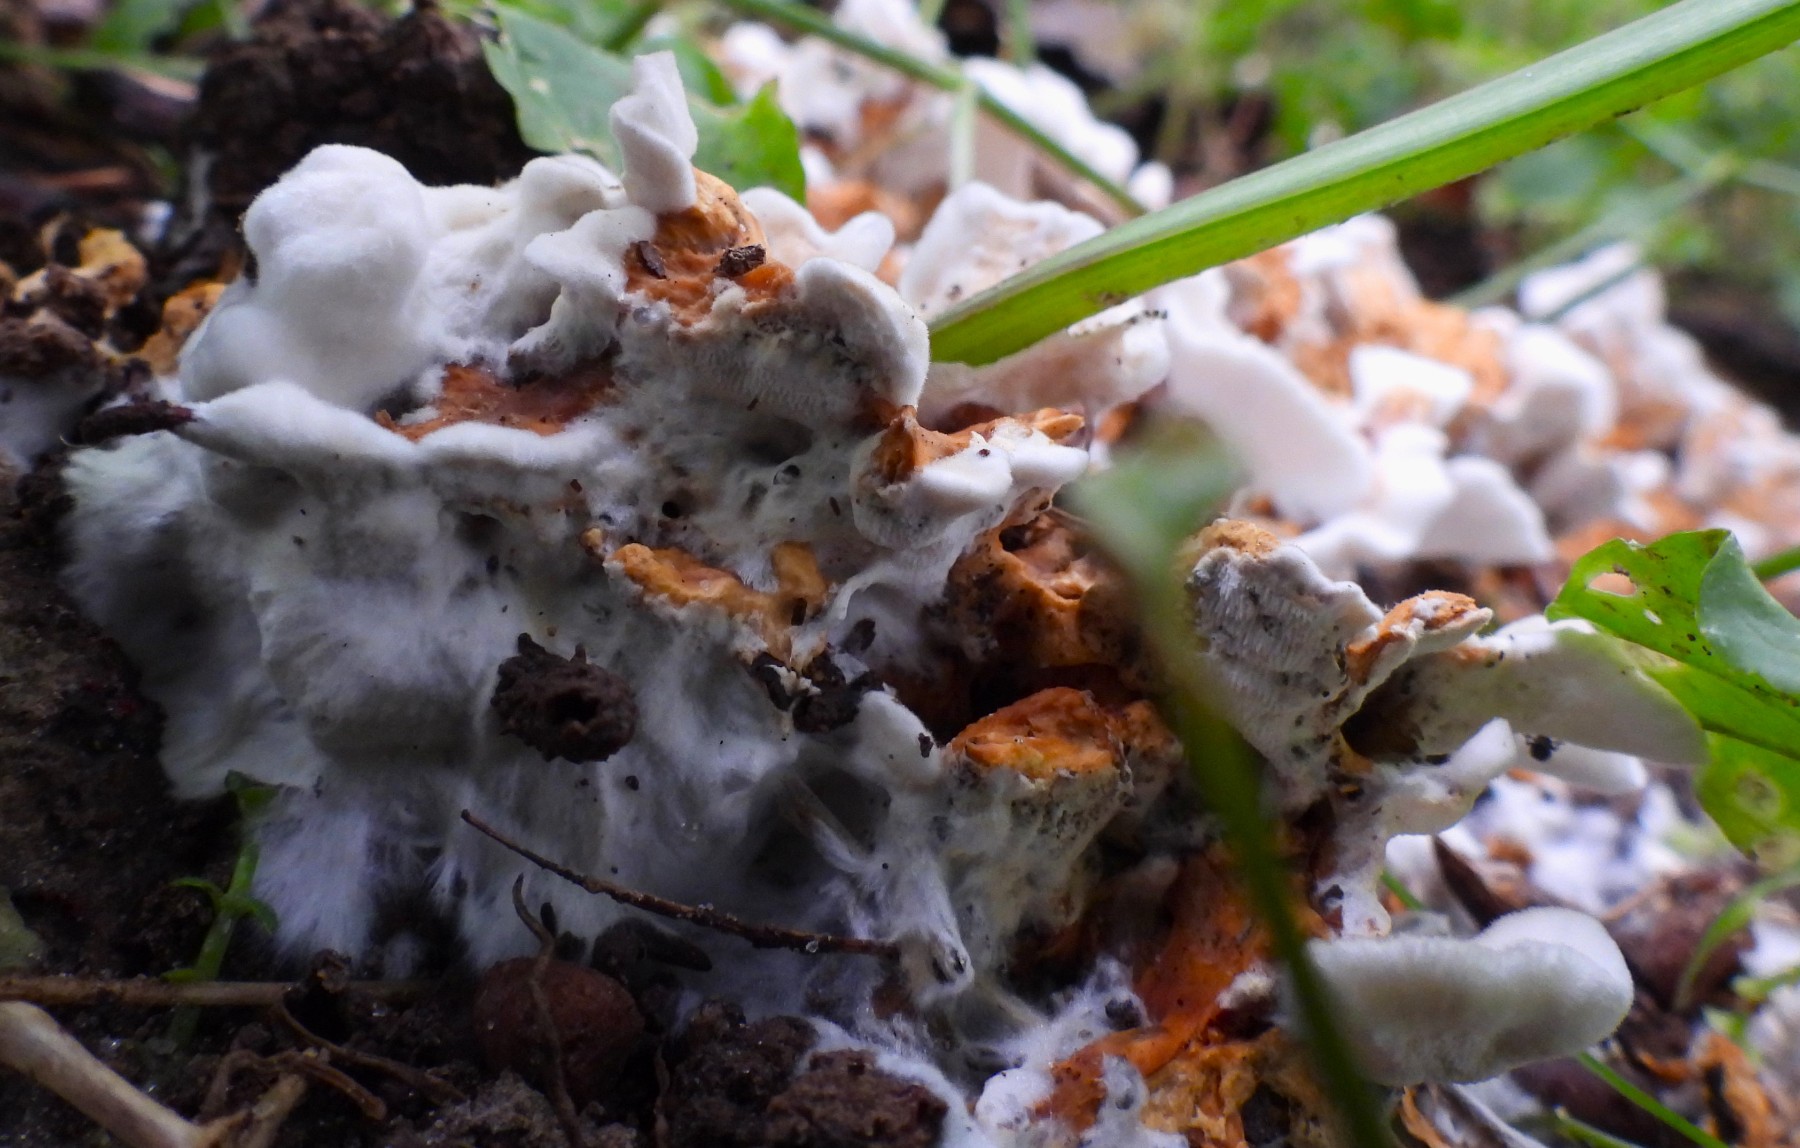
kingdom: Fungi
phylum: Basidiomycota
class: Agaricomycetes
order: Polyporales
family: Steccherinaceae
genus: Loweomyces
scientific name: Loweomyces wynneae
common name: krybende blødporesvamp
